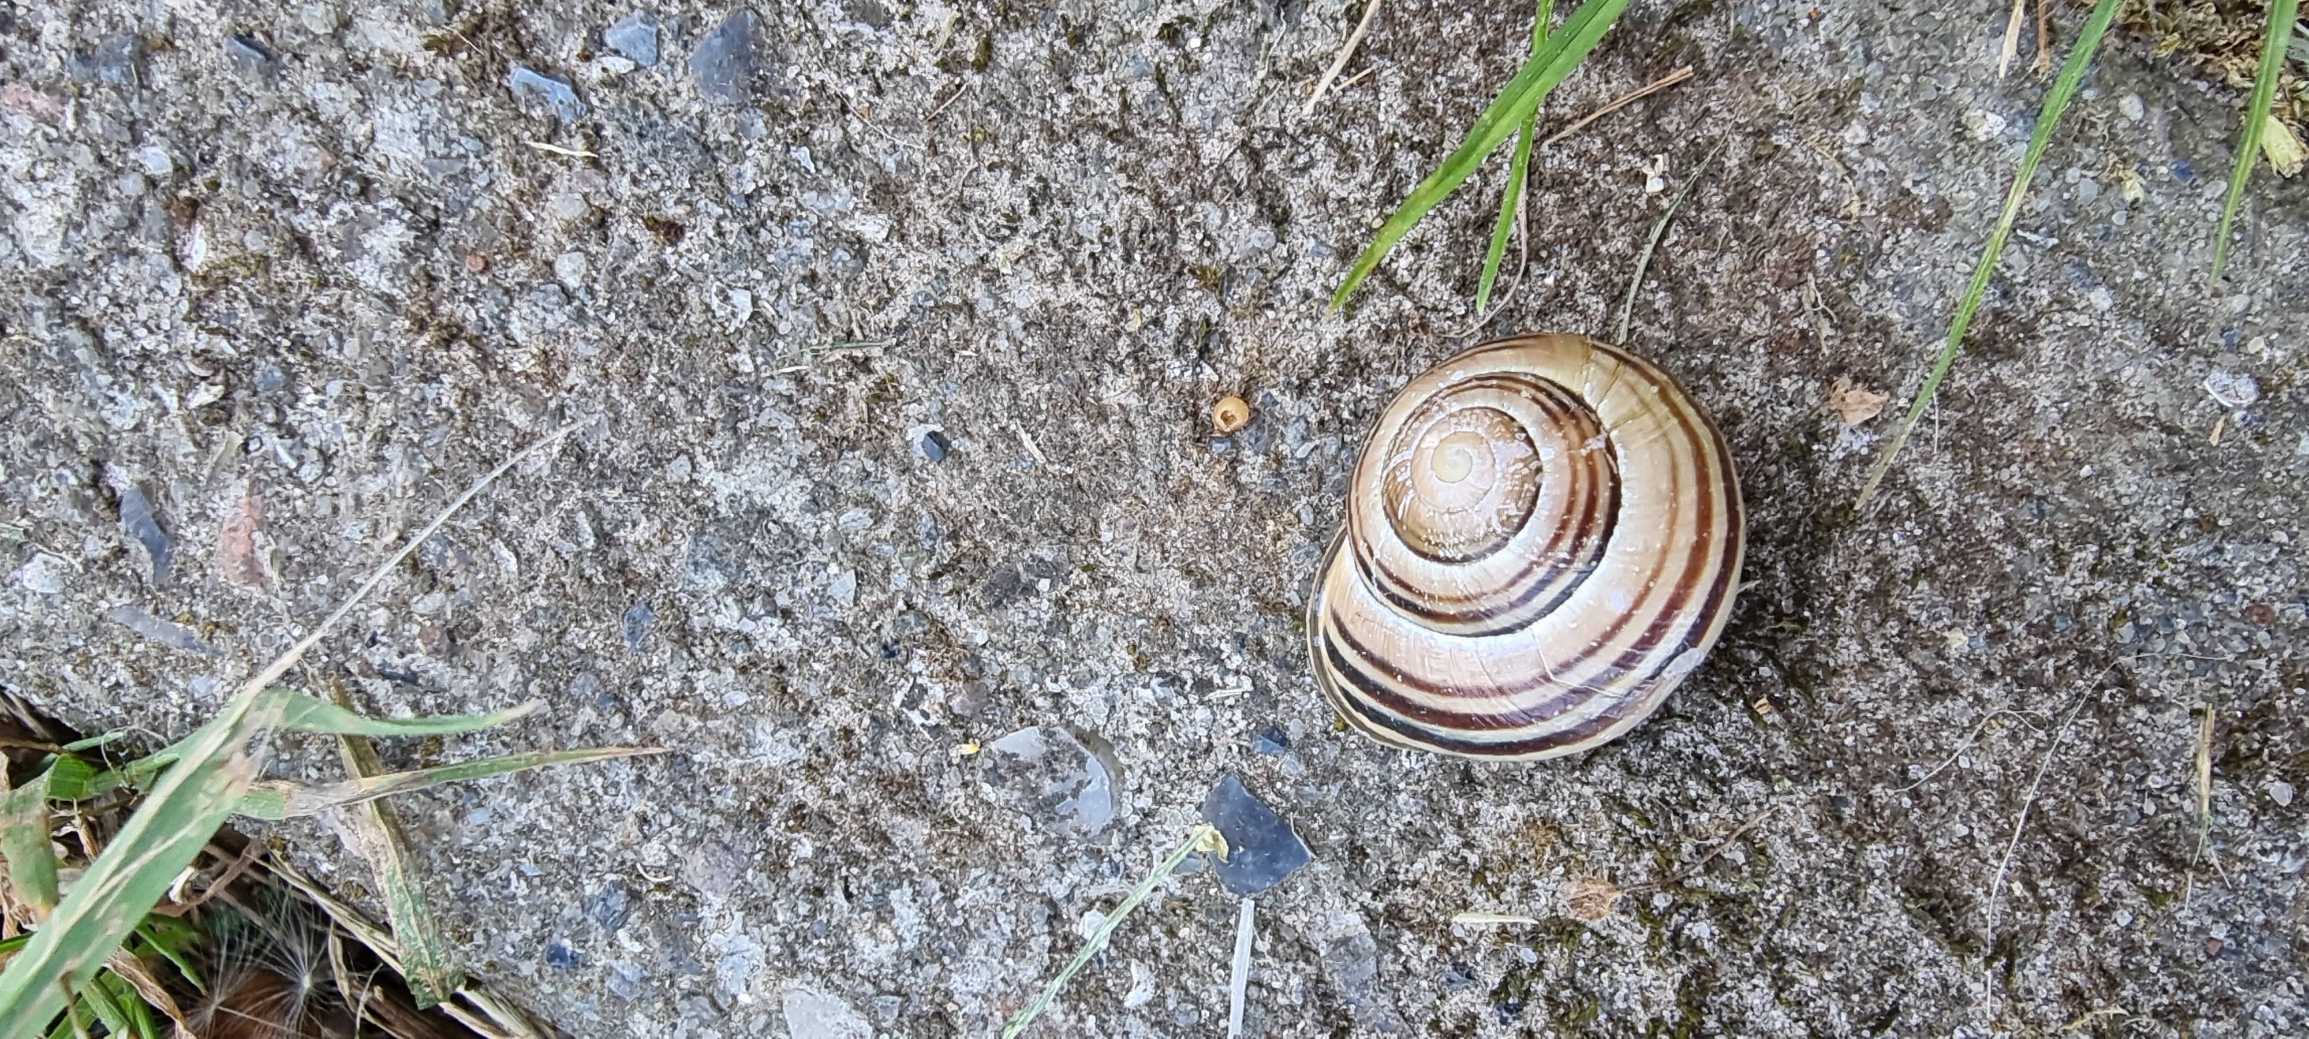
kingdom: Animalia
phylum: Mollusca
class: Gastropoda
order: Stylommatophora
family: Helicidae
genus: Cepaea
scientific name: Cepaea nemoralis
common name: Lundsnegl
